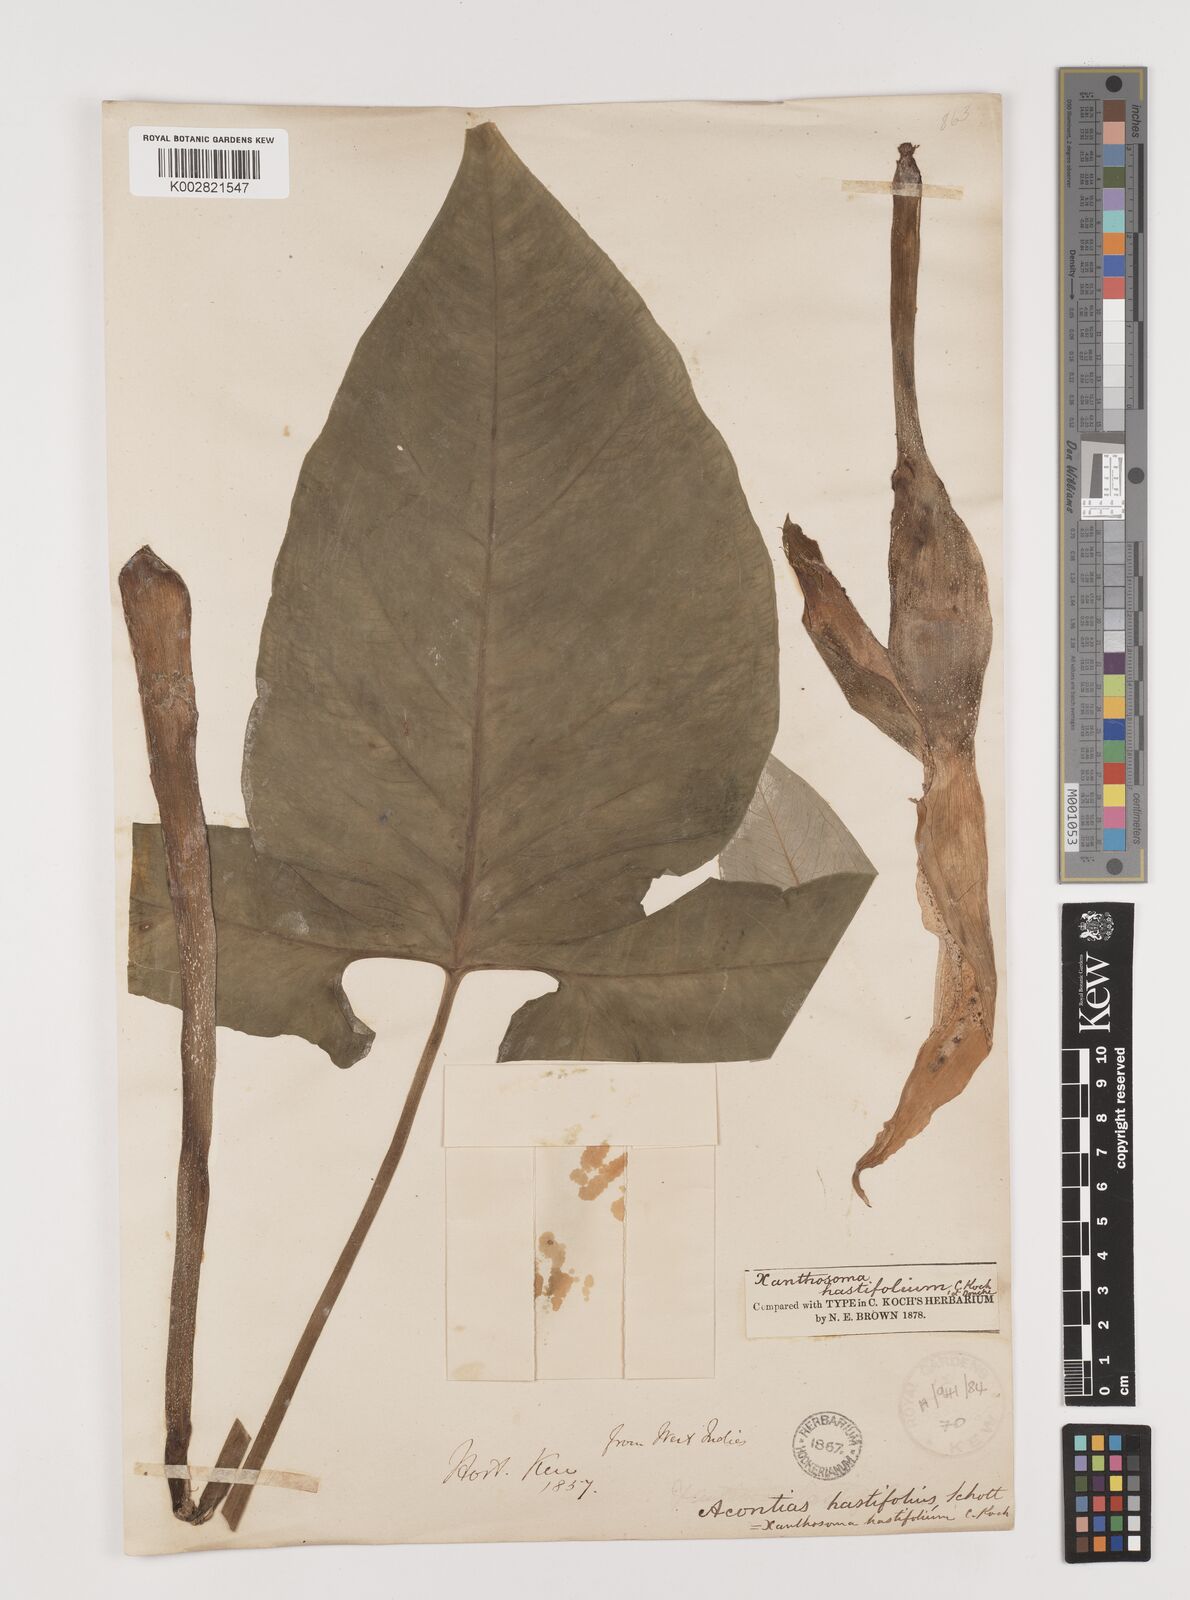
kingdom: Plantae
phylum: Tracheophyta
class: Liliopsida
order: Alismatales
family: Araceae
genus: Xanthosoma
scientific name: Xanthosoma brasiliense
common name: Tahitian-spinach
